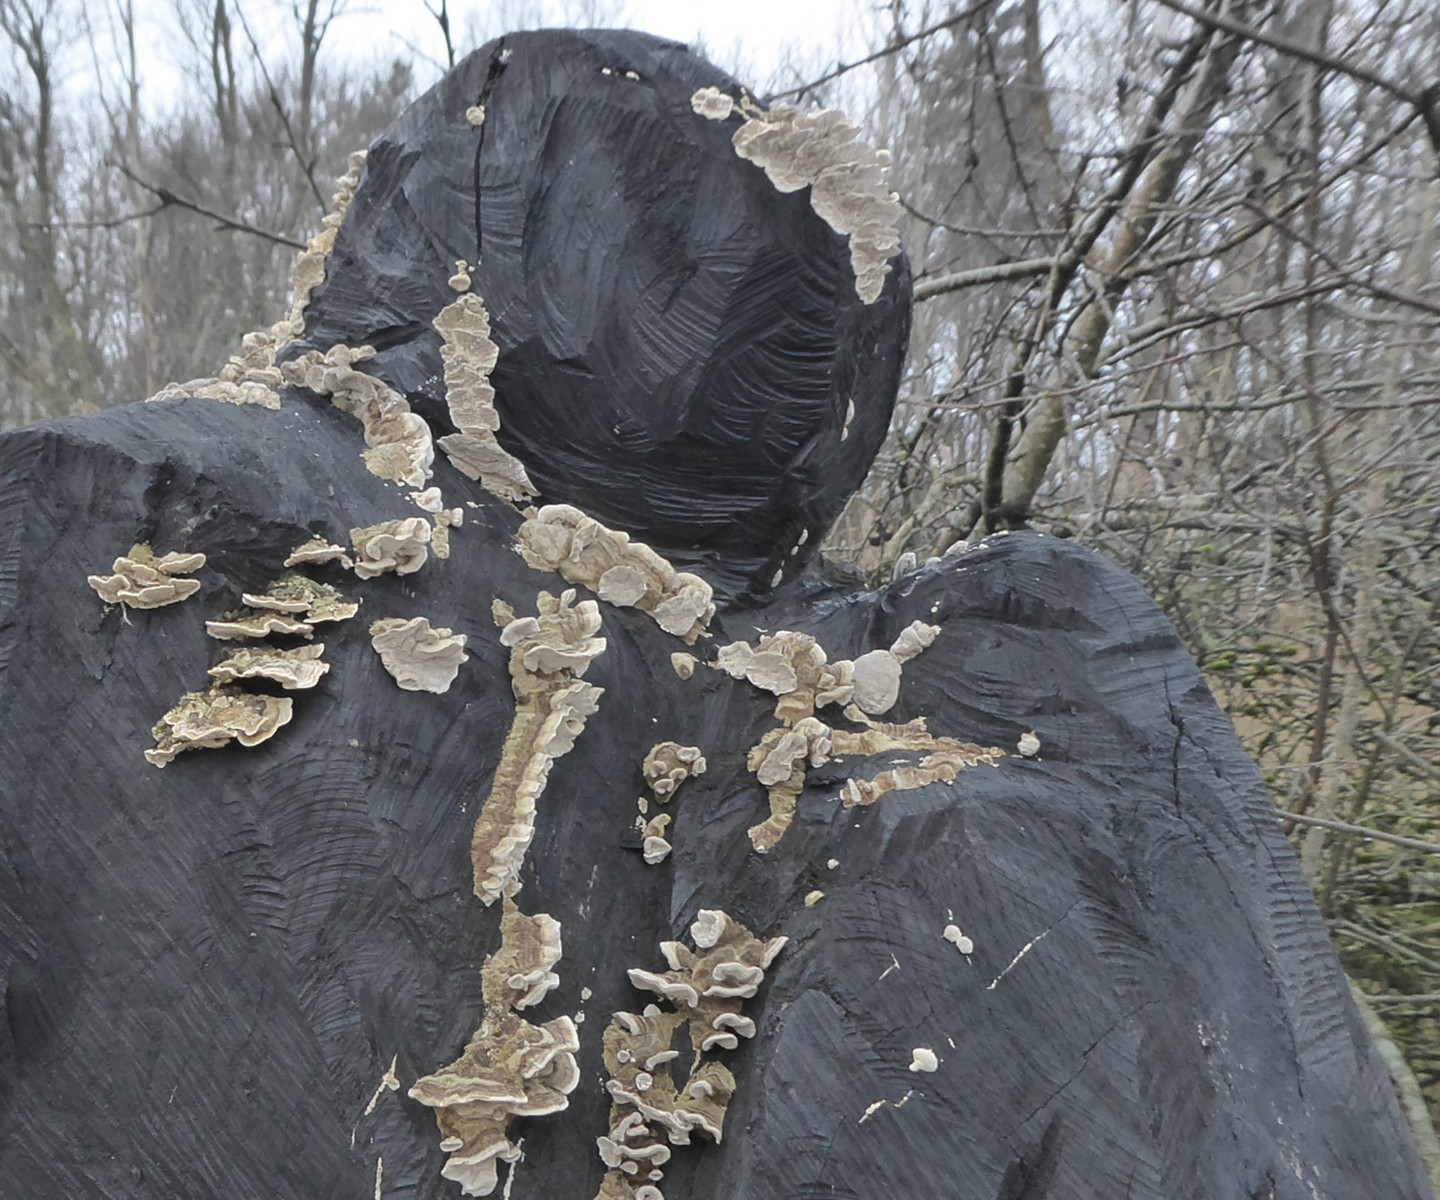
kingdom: Fungi
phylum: Basidiomycota
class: Agaricomycetes
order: Polyporales
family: Polyporaceae
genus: Trametes
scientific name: Trametes
